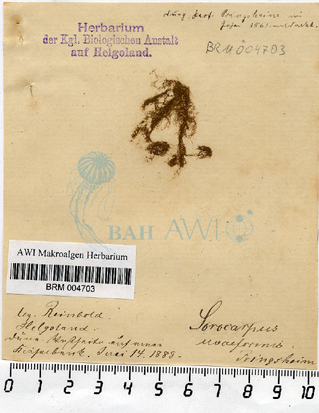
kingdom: Chromista
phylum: Ochrophyta
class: Phaeophyceae
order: Ectocarpales
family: Chordariaceae
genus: Botrytella
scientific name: Botrytella micromora
